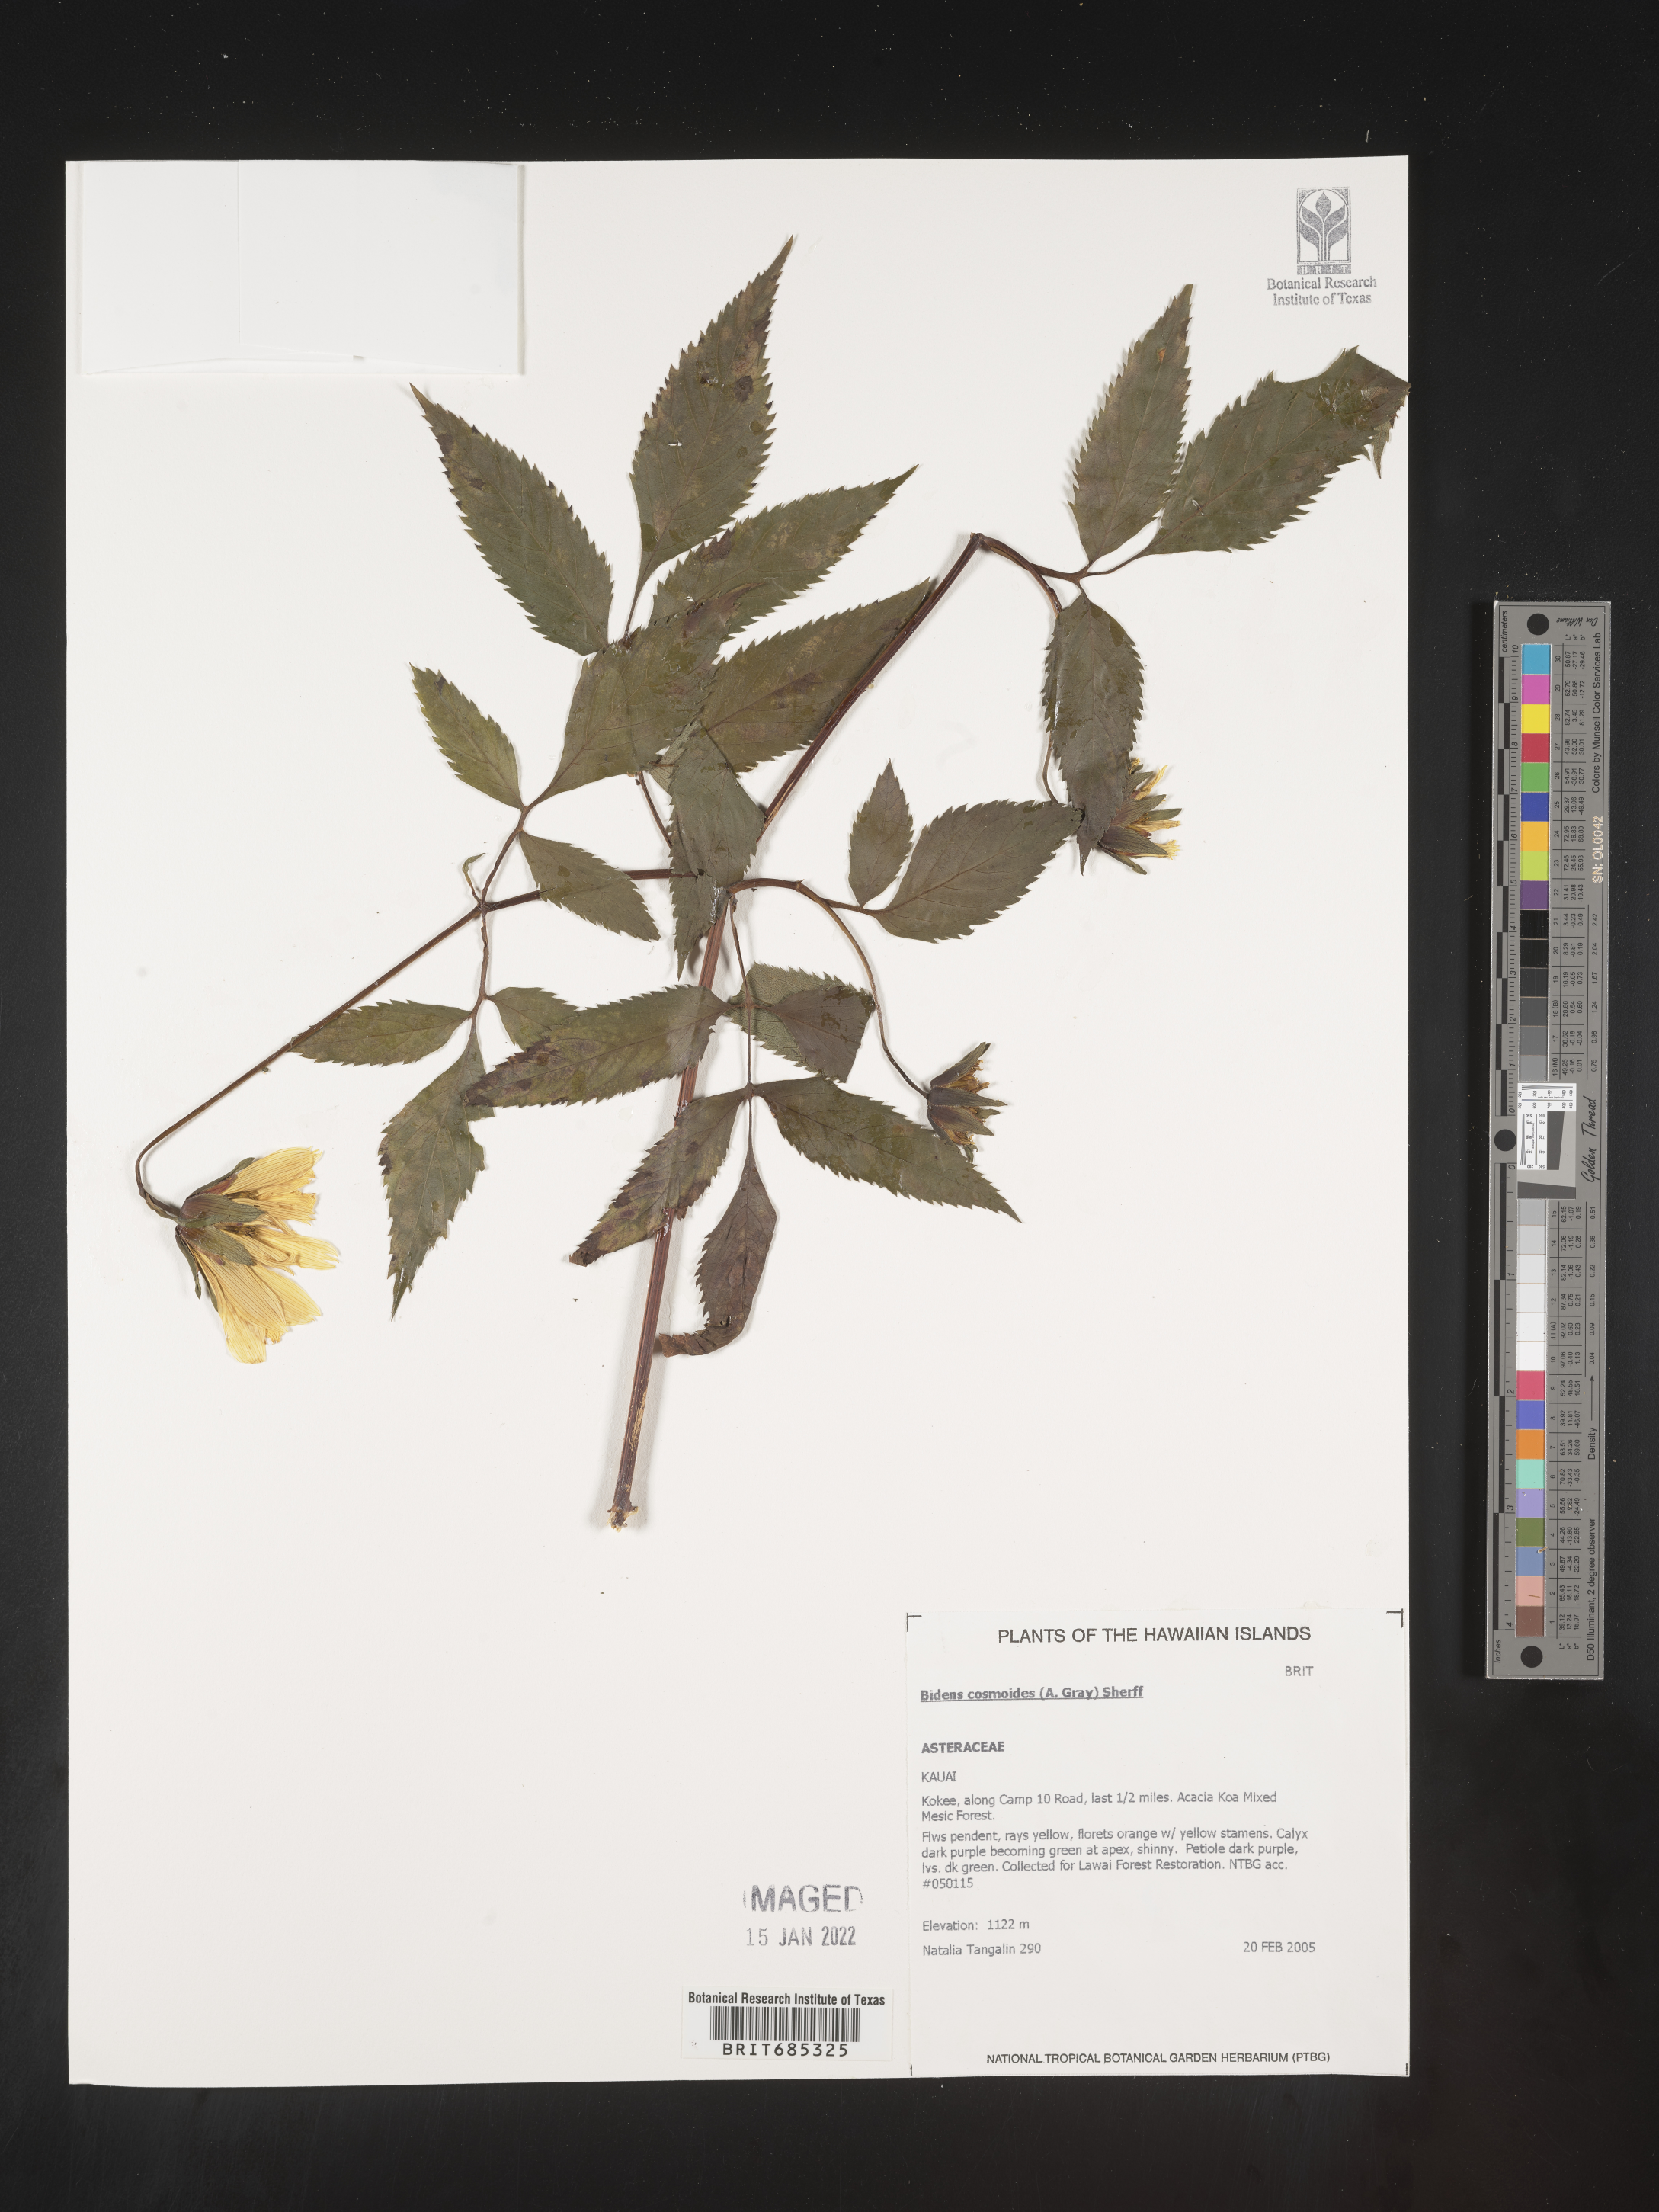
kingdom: Plantae
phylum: Tracheophyta
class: Magnoliopsida
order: Asterales
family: Asteraceae
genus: Bidens
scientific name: Bidens
